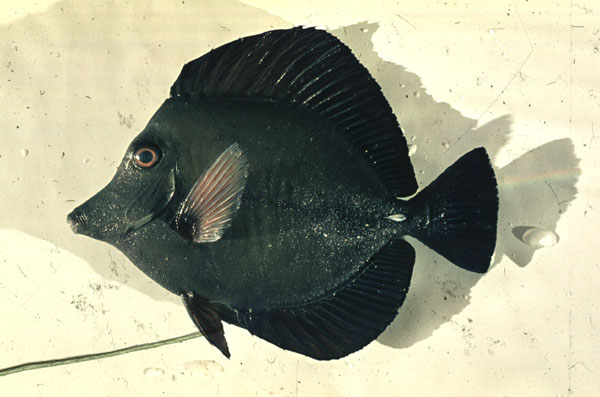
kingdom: Animalia
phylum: Chordata
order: Perciformes
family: Acanthuridae
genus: Zebrasoma
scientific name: Zebrasoma scopas
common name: Twotone tang
